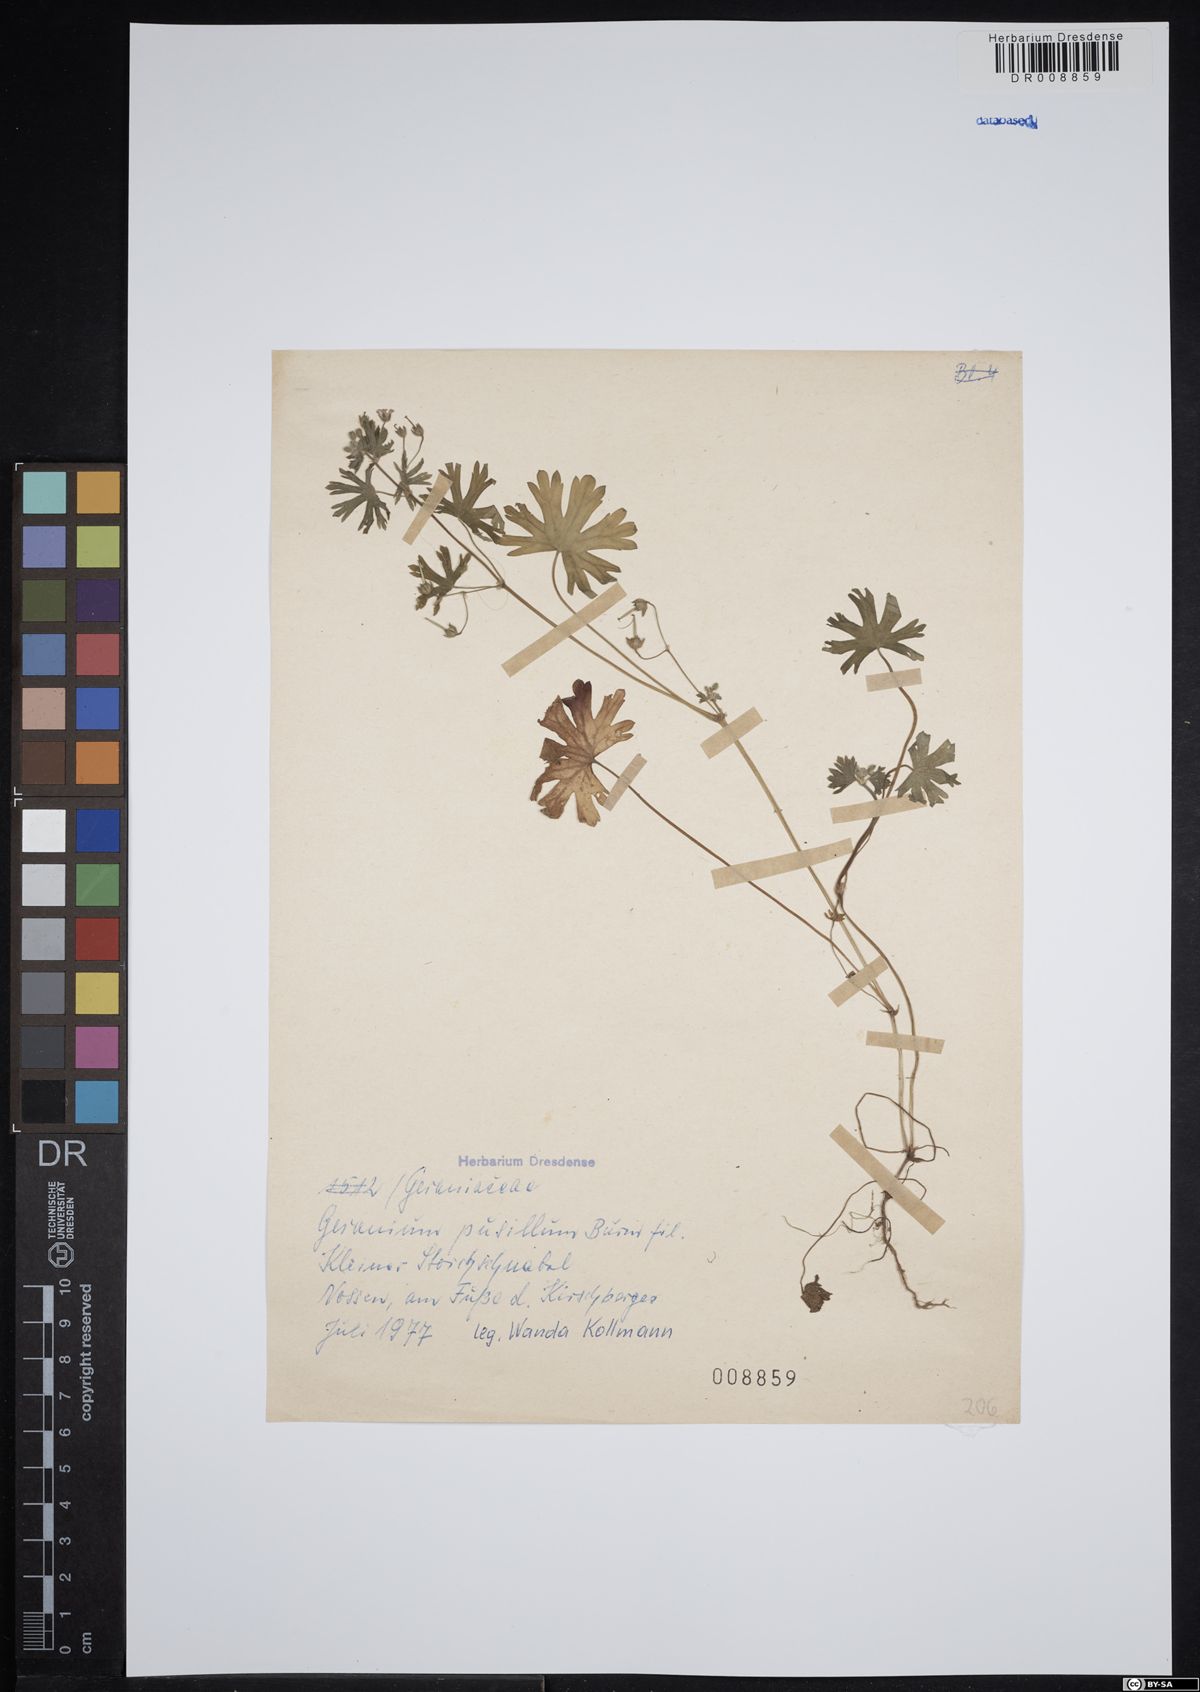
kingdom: Plantae
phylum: Tracheophyta
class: Magnoliopsida
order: Geraniales
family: Geraniaceae
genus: Geranium
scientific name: Geranium pusillum
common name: Small geranium
